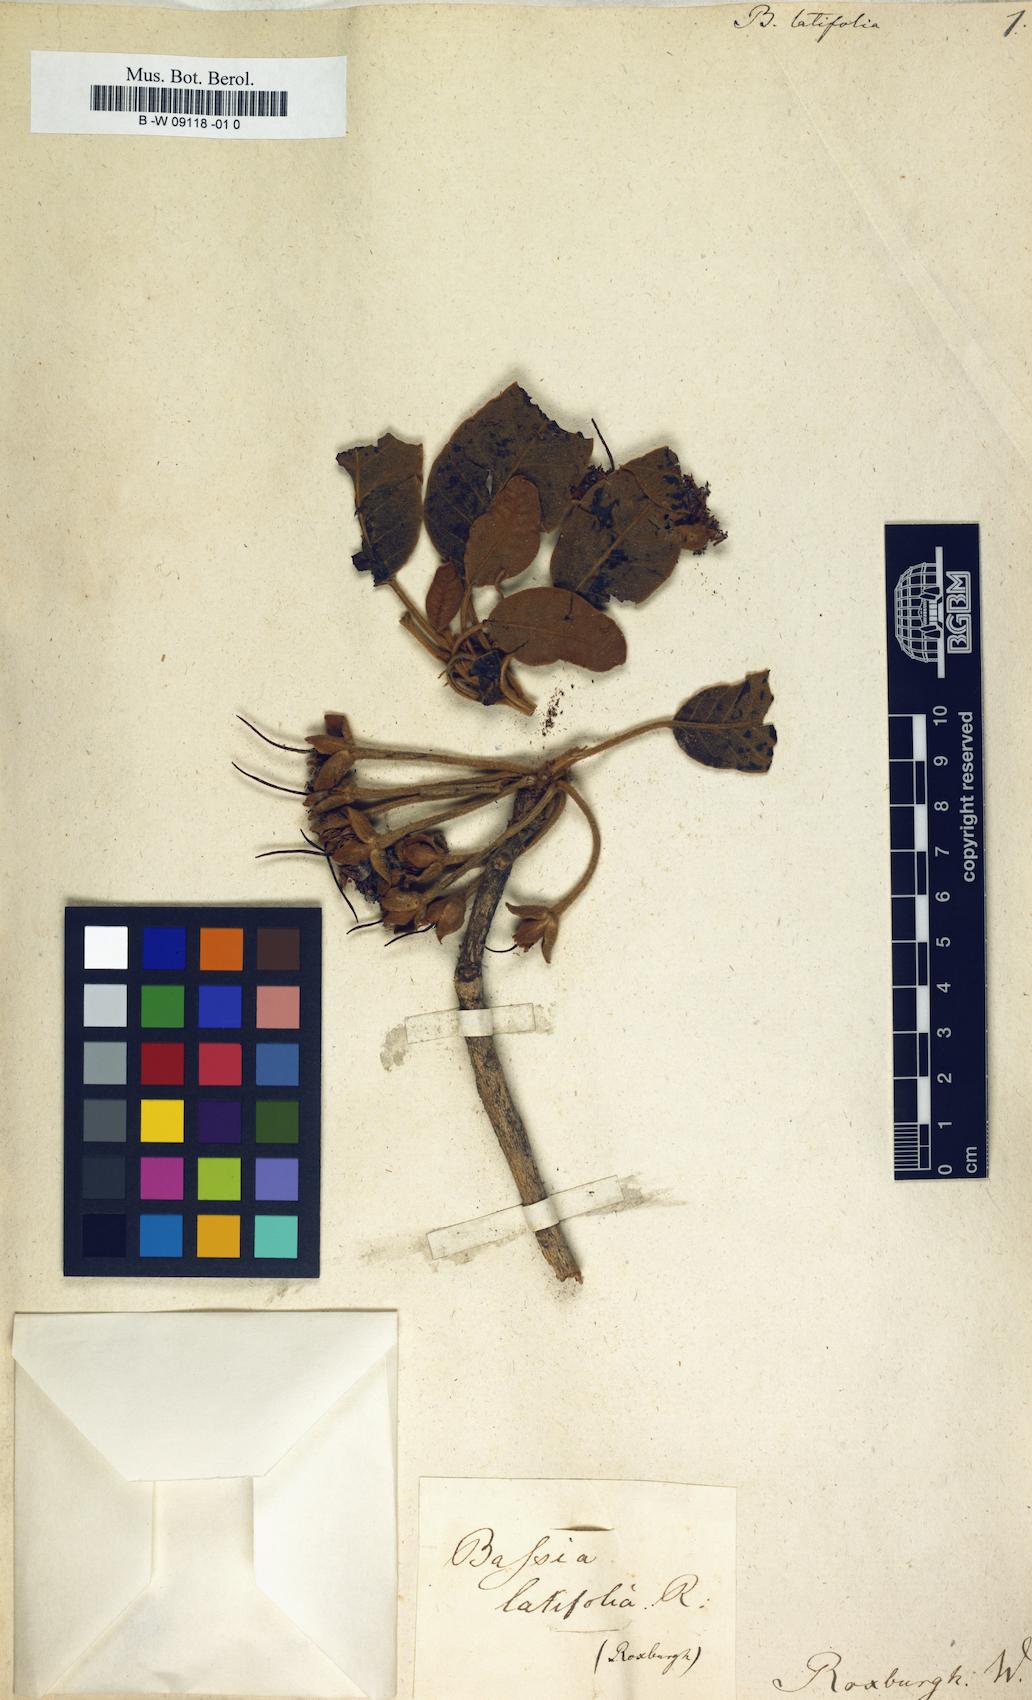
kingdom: Plantae
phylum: Tracheophyta
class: Magnoliopsida
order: Ericales
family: Sapotaceae
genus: Madhuca
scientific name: Madhuca longifolia
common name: Mowra-buttertree
